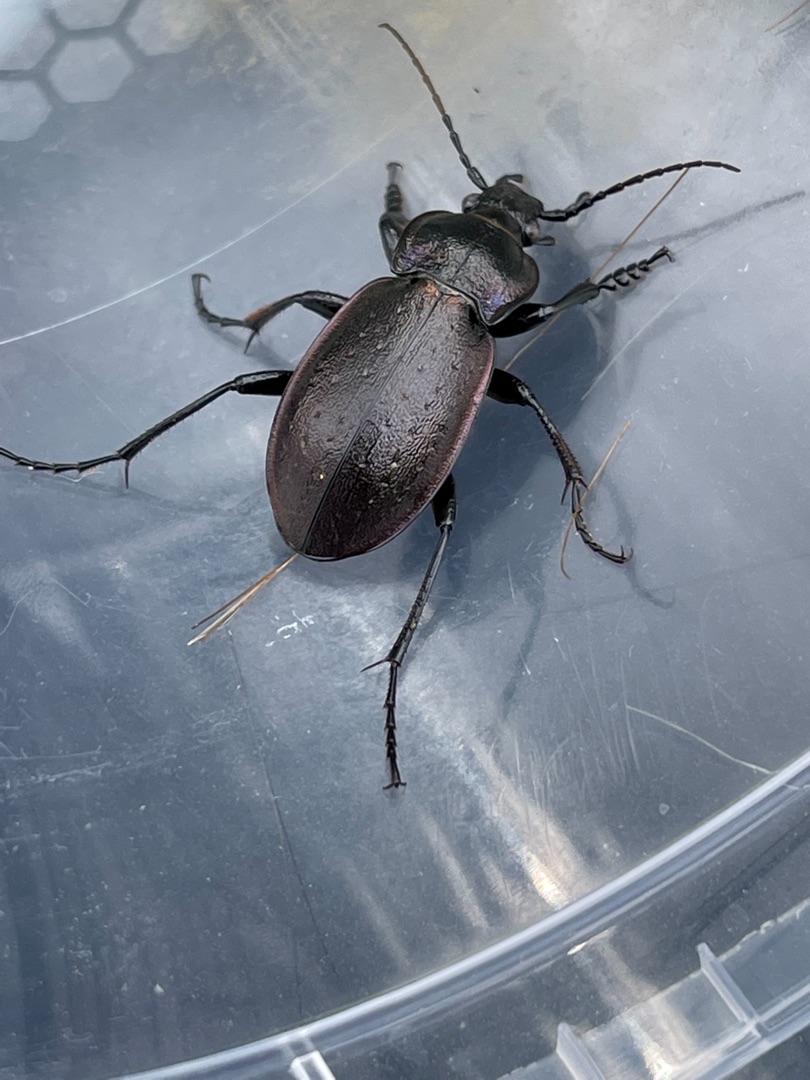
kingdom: Animalia
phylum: Arthropoda
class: Insecta
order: Coleoptera
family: Carabidae
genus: Carabus
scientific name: Carabus nemoralis
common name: Kratløber
